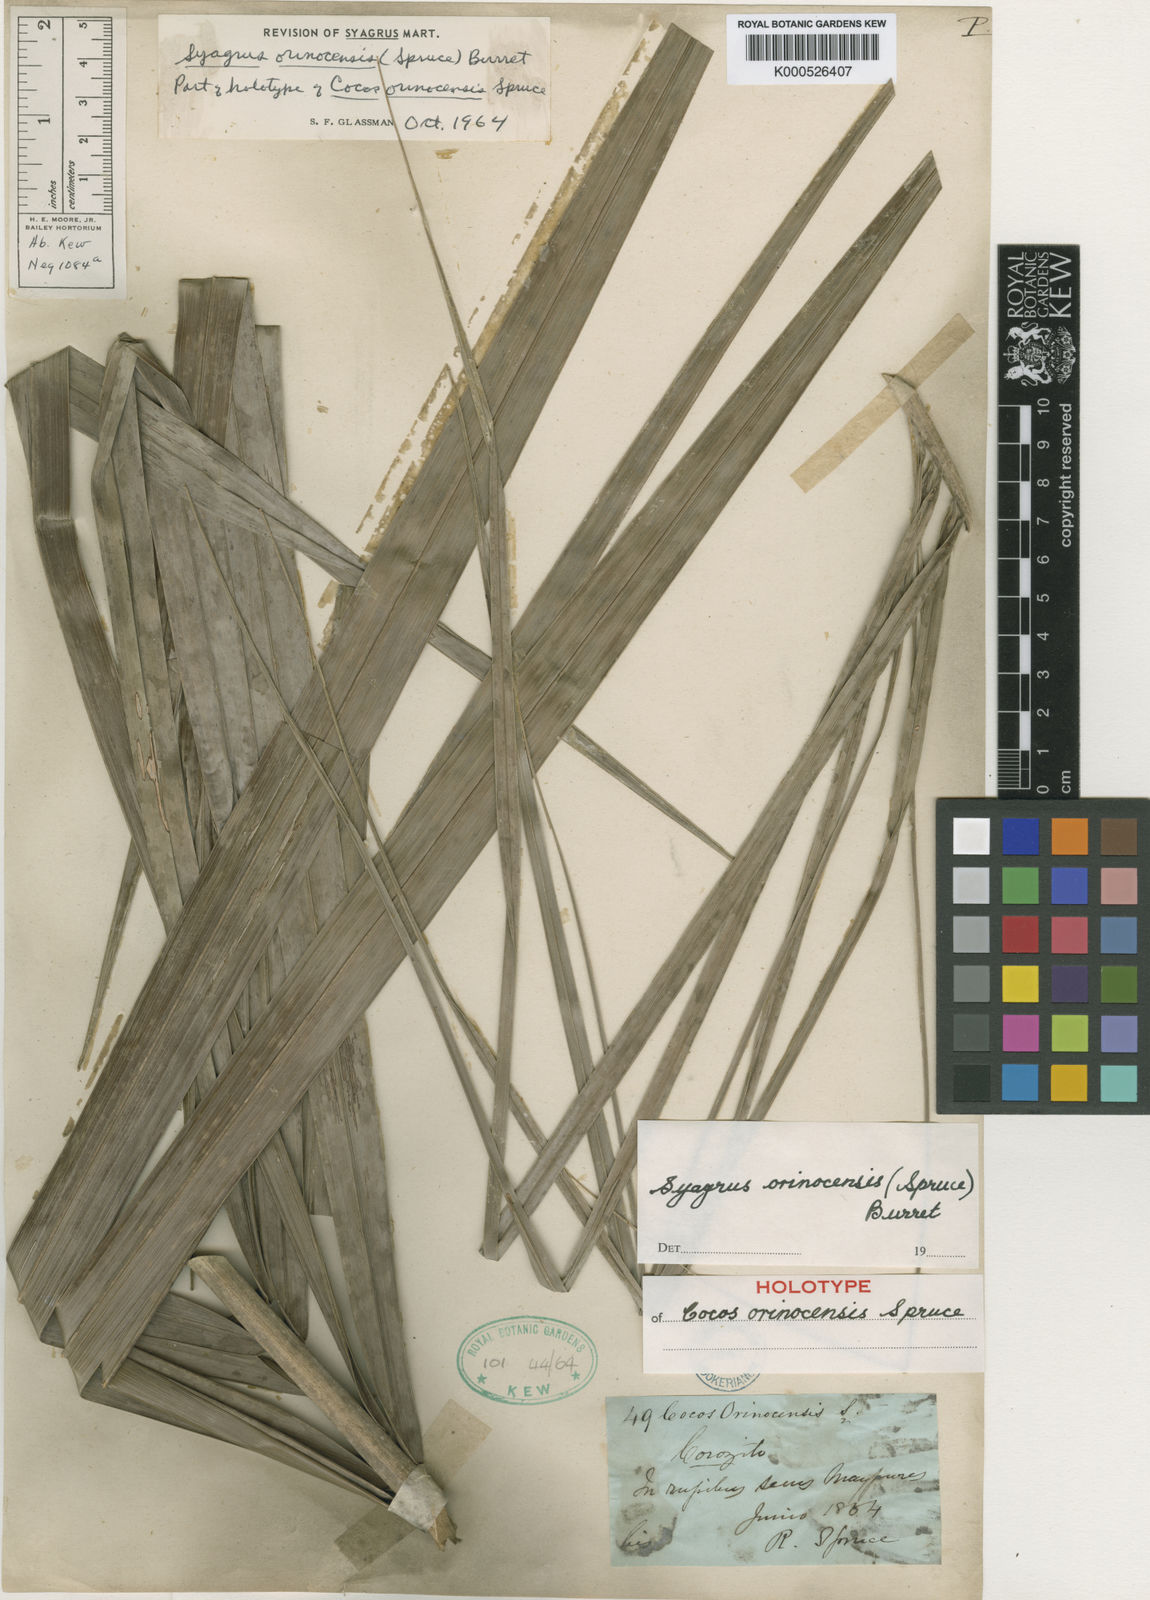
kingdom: Plantae
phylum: Tracheophyta
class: Liliopsida
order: Arecales
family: Arecaceae
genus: Syagrus
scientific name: Syagrus orinocensis
